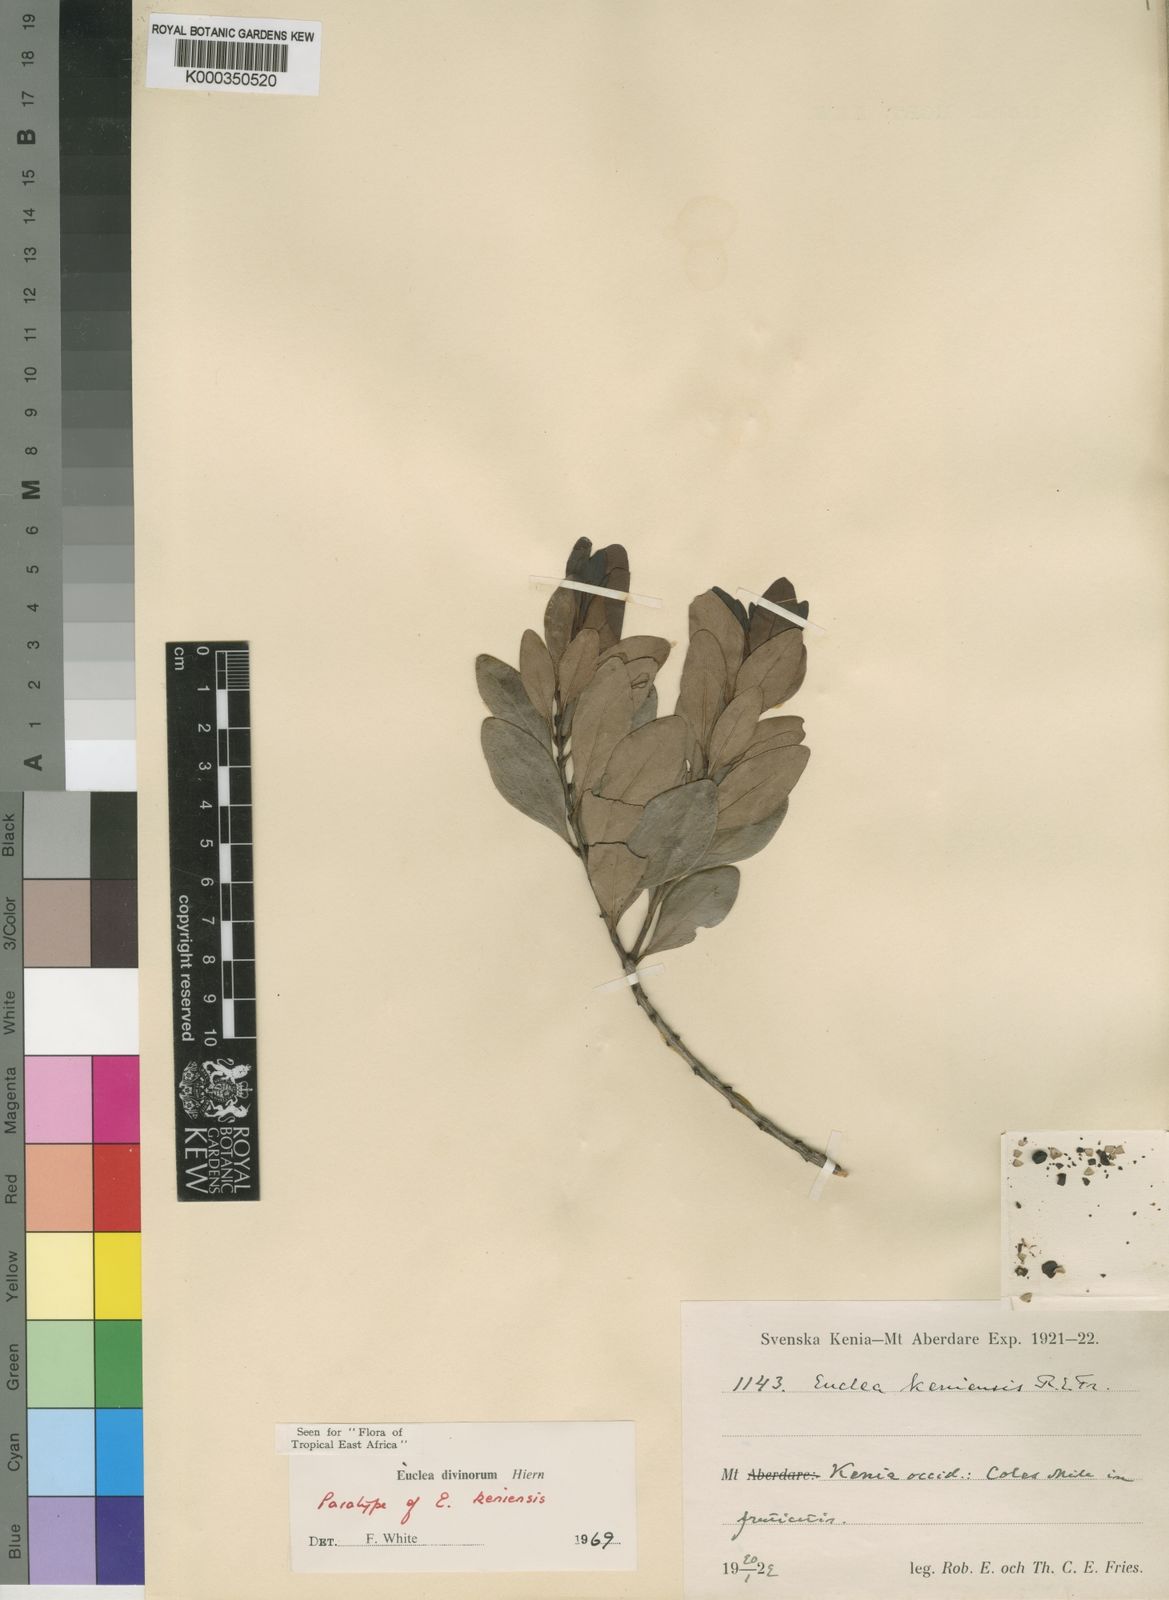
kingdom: Plantae
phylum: Tracheophyta
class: Magnoliopsida
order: Ericales
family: Ebenaceae
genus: Euclea
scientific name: Euclea divinorum
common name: Diamond-leaved euclea
